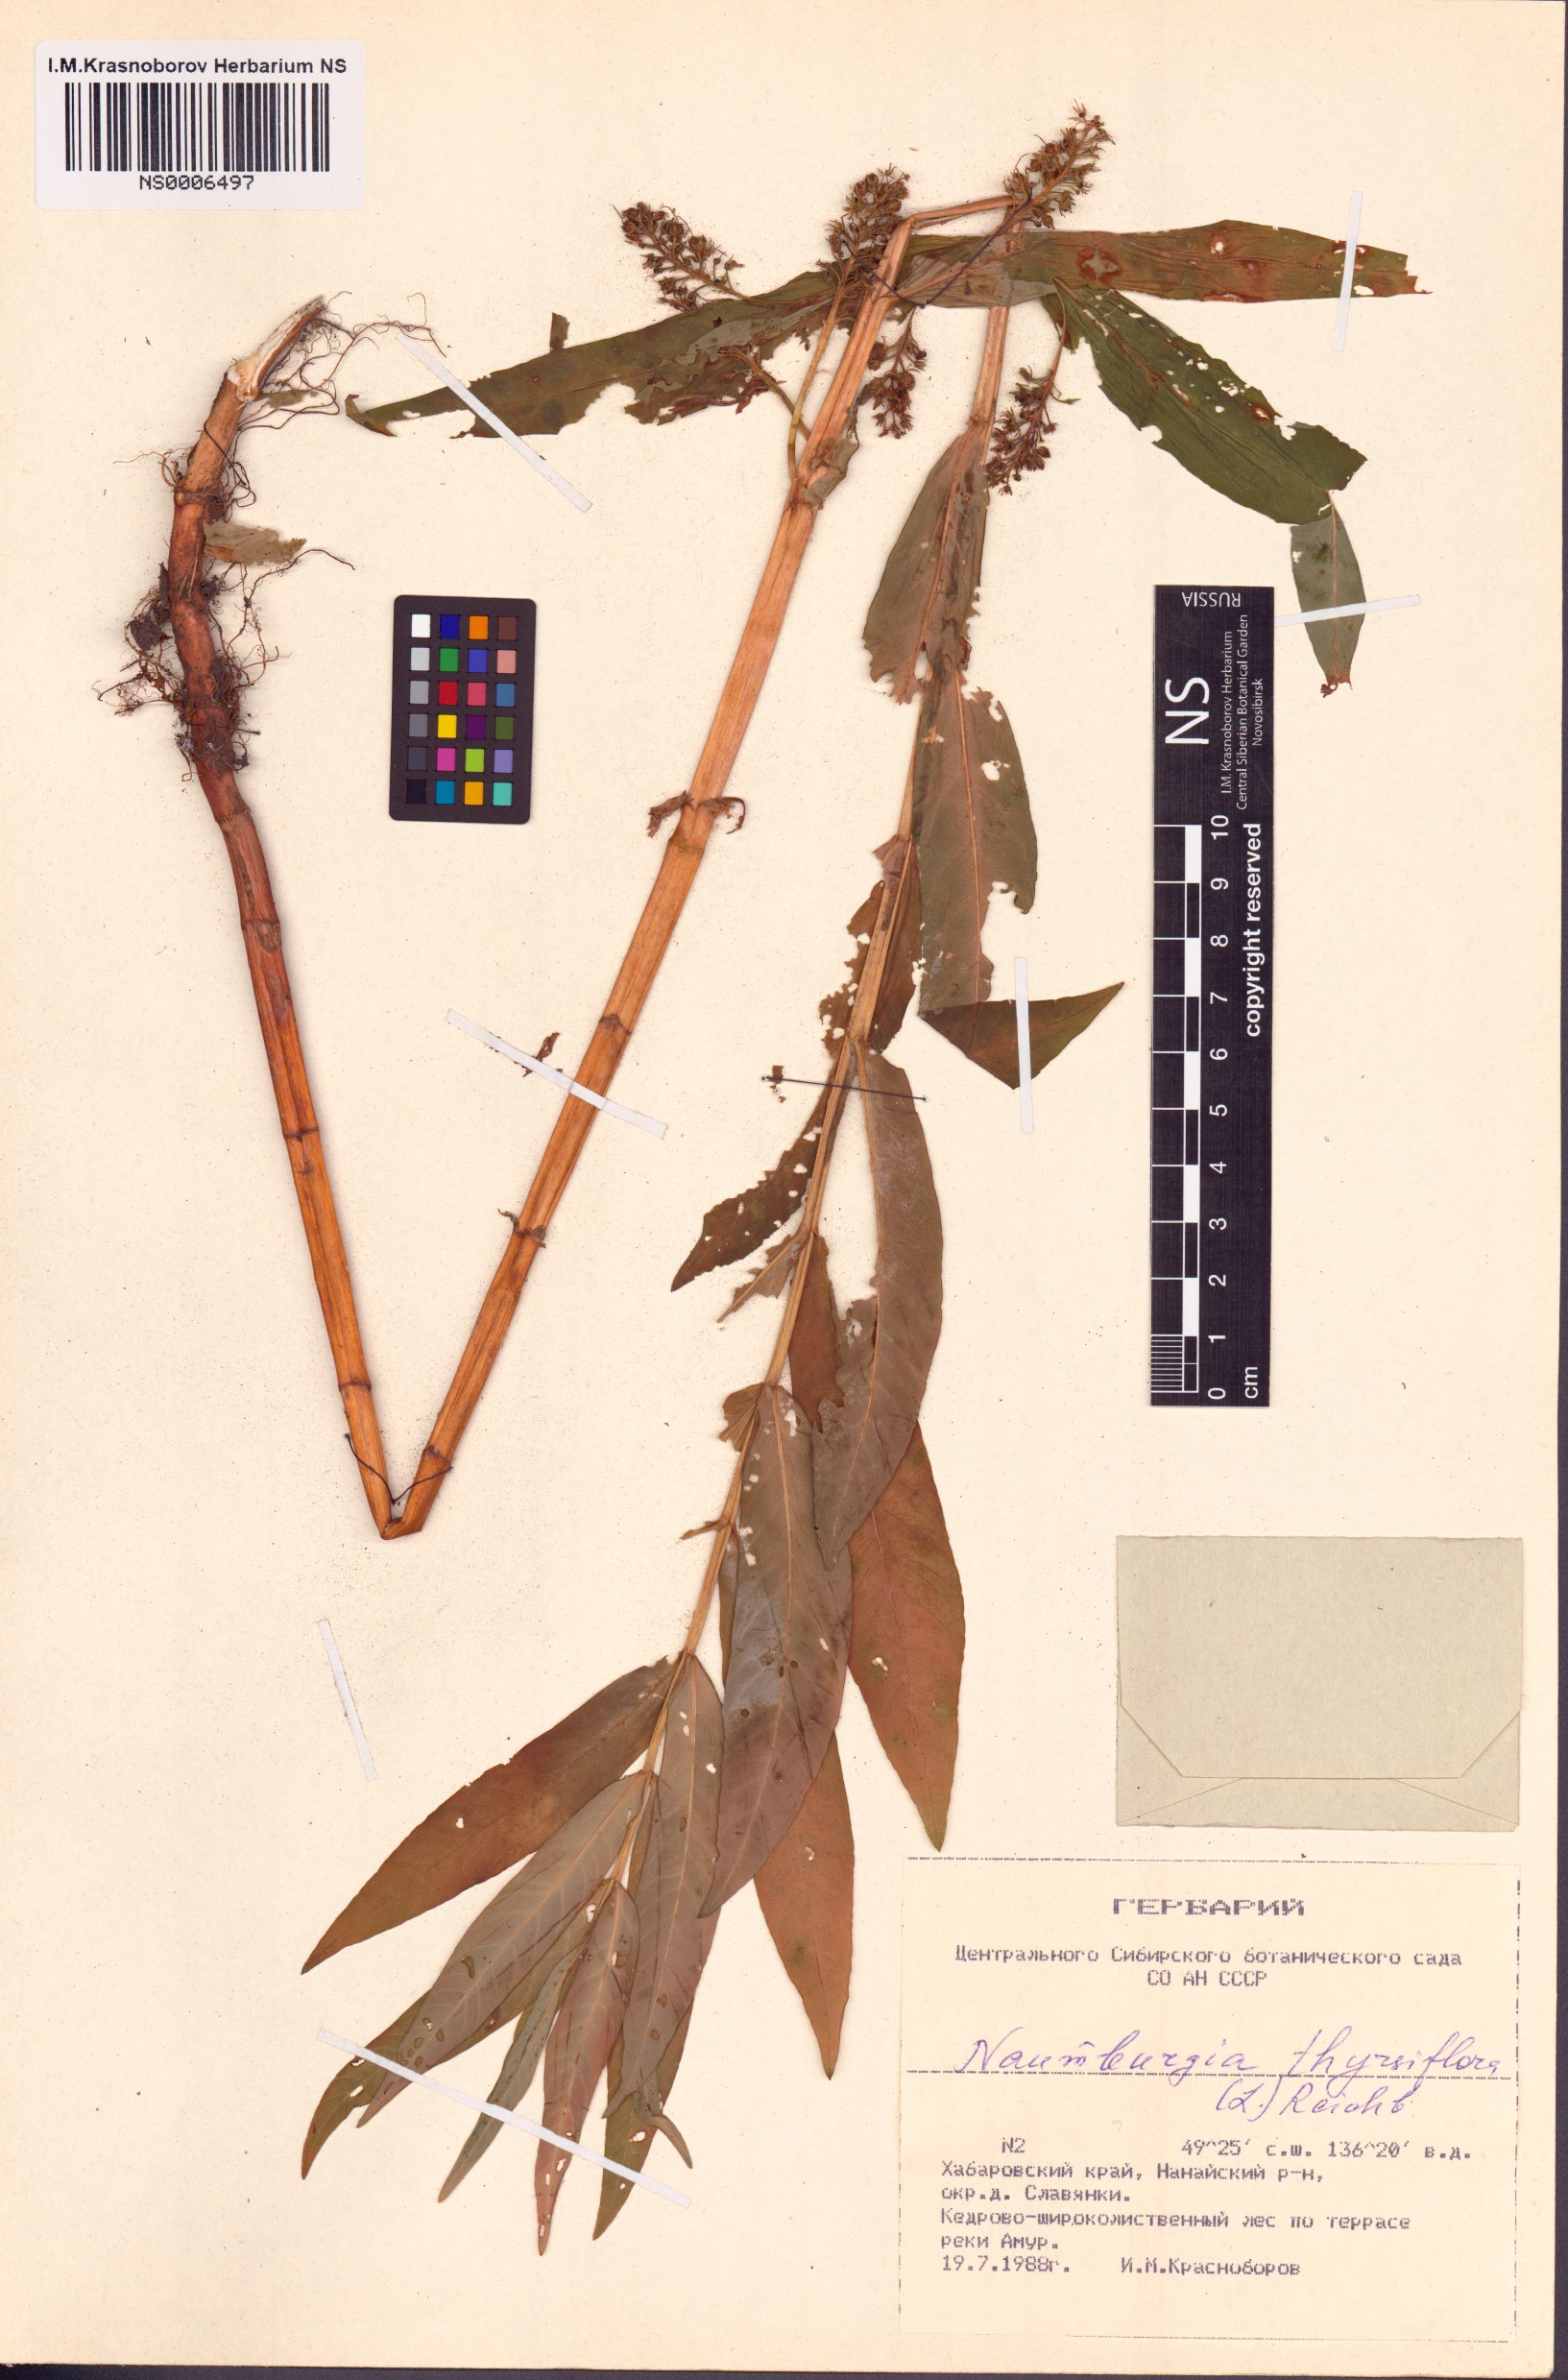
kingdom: Plantae
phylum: Tracheophyta
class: Magnoliopsida
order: Ericales
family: Primulaceae
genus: Lysimachia
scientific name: Lysimachia thyrsiflora
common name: Tufted loosestrife
